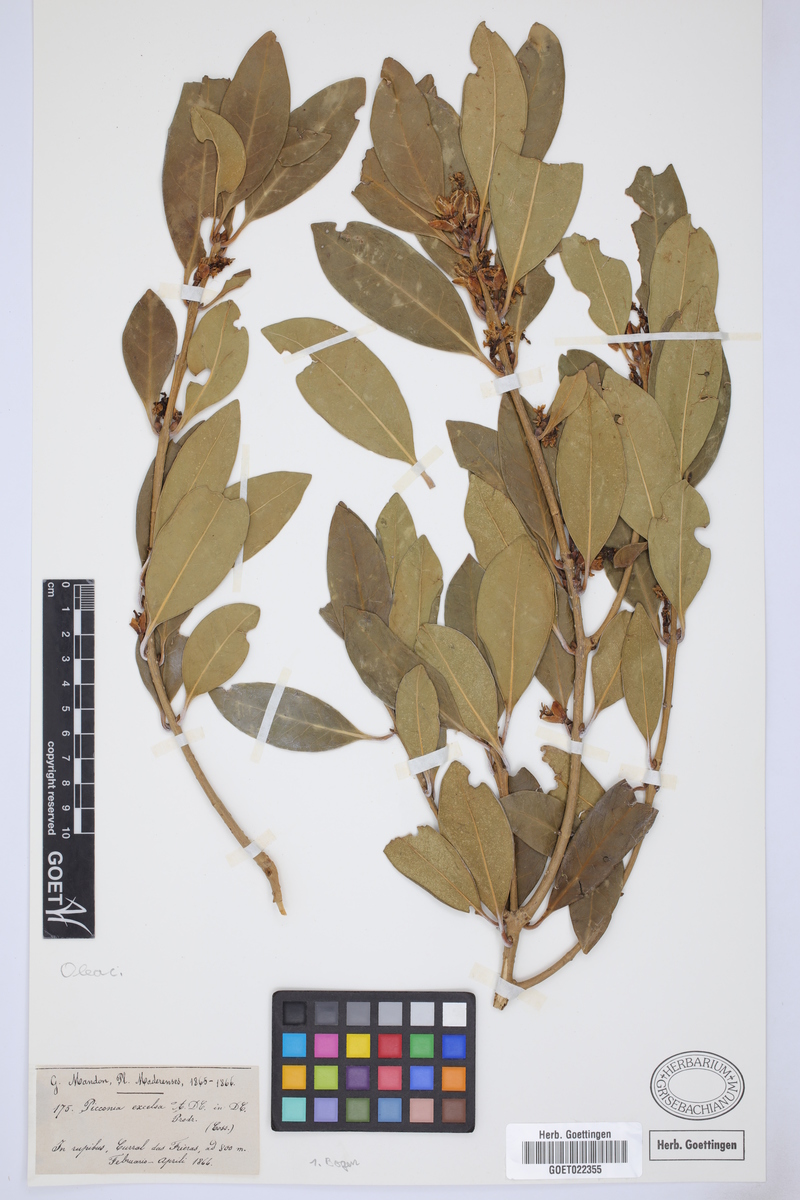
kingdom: Plantae
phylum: Tracheophyta
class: Magnoliopsida
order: Lamiales
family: Oleaceae
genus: Picconia
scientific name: Picconia excelsa
